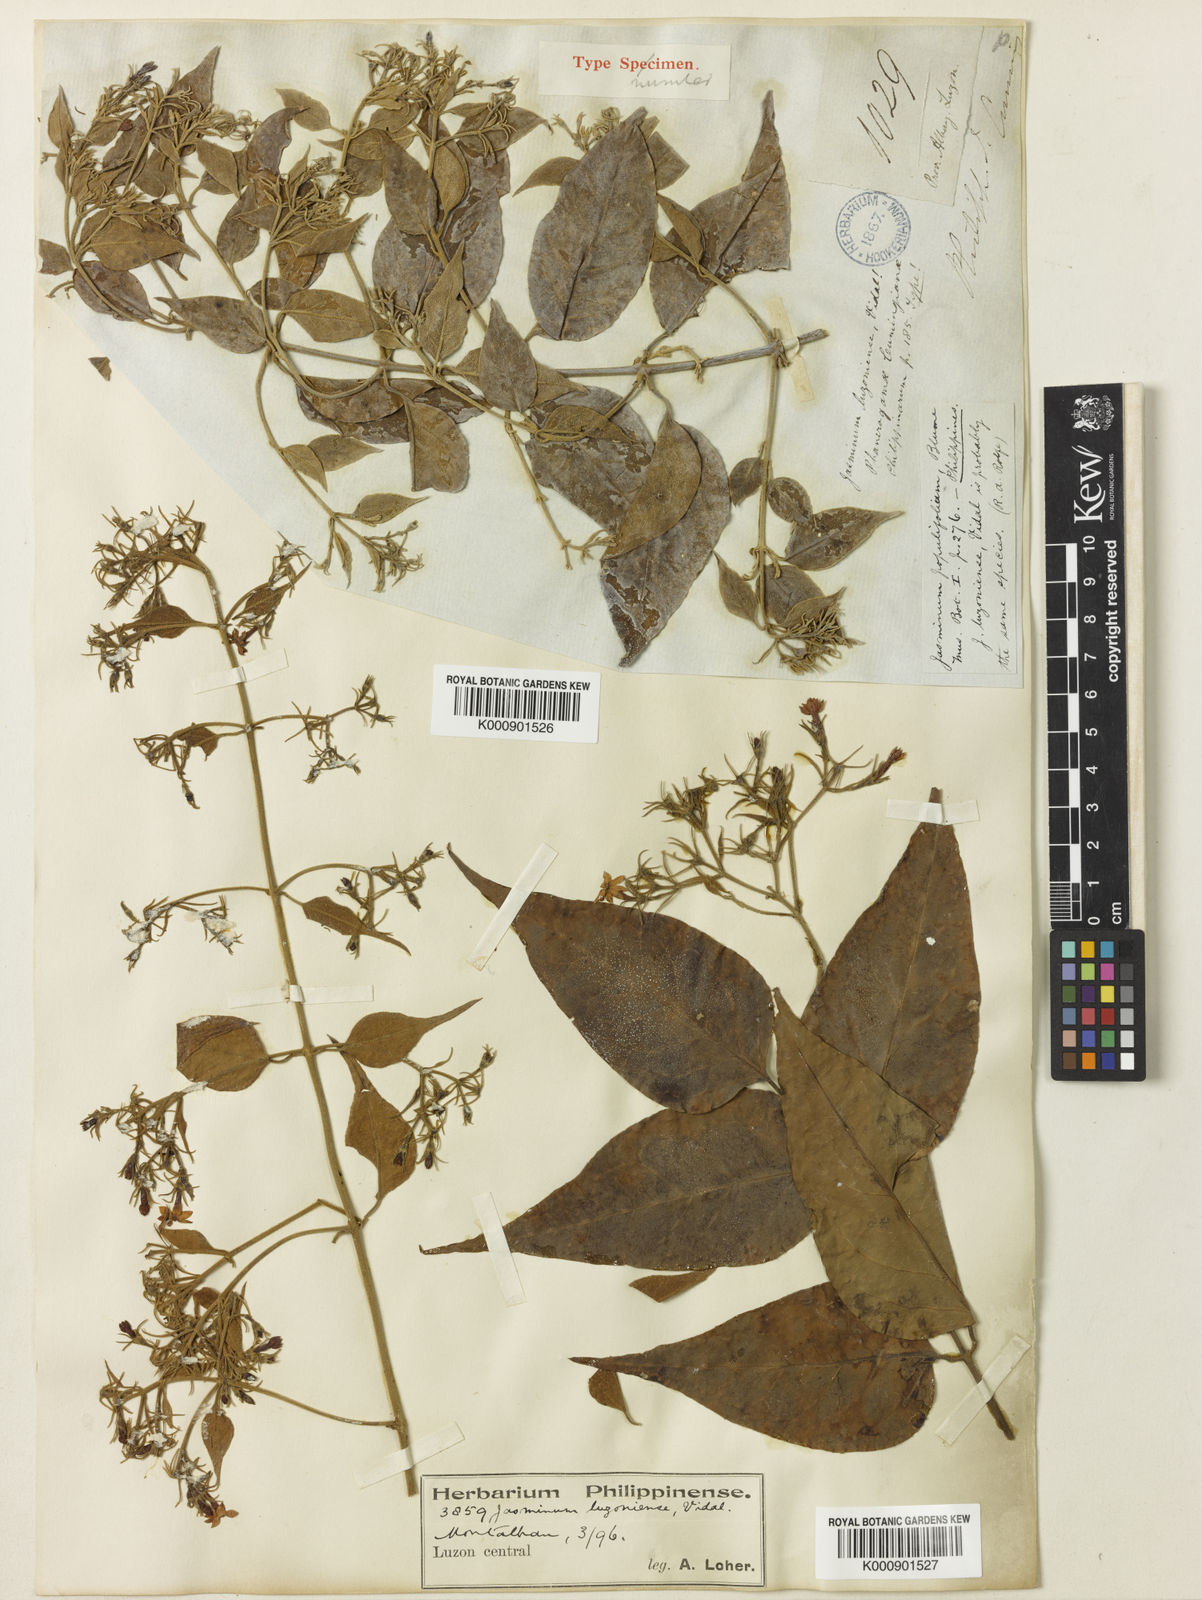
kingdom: Plantae
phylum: Tracheophyta
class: Magnoliopsida
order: Lamiales
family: Oleaceae
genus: Jasminum
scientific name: Jasminum populifolium
